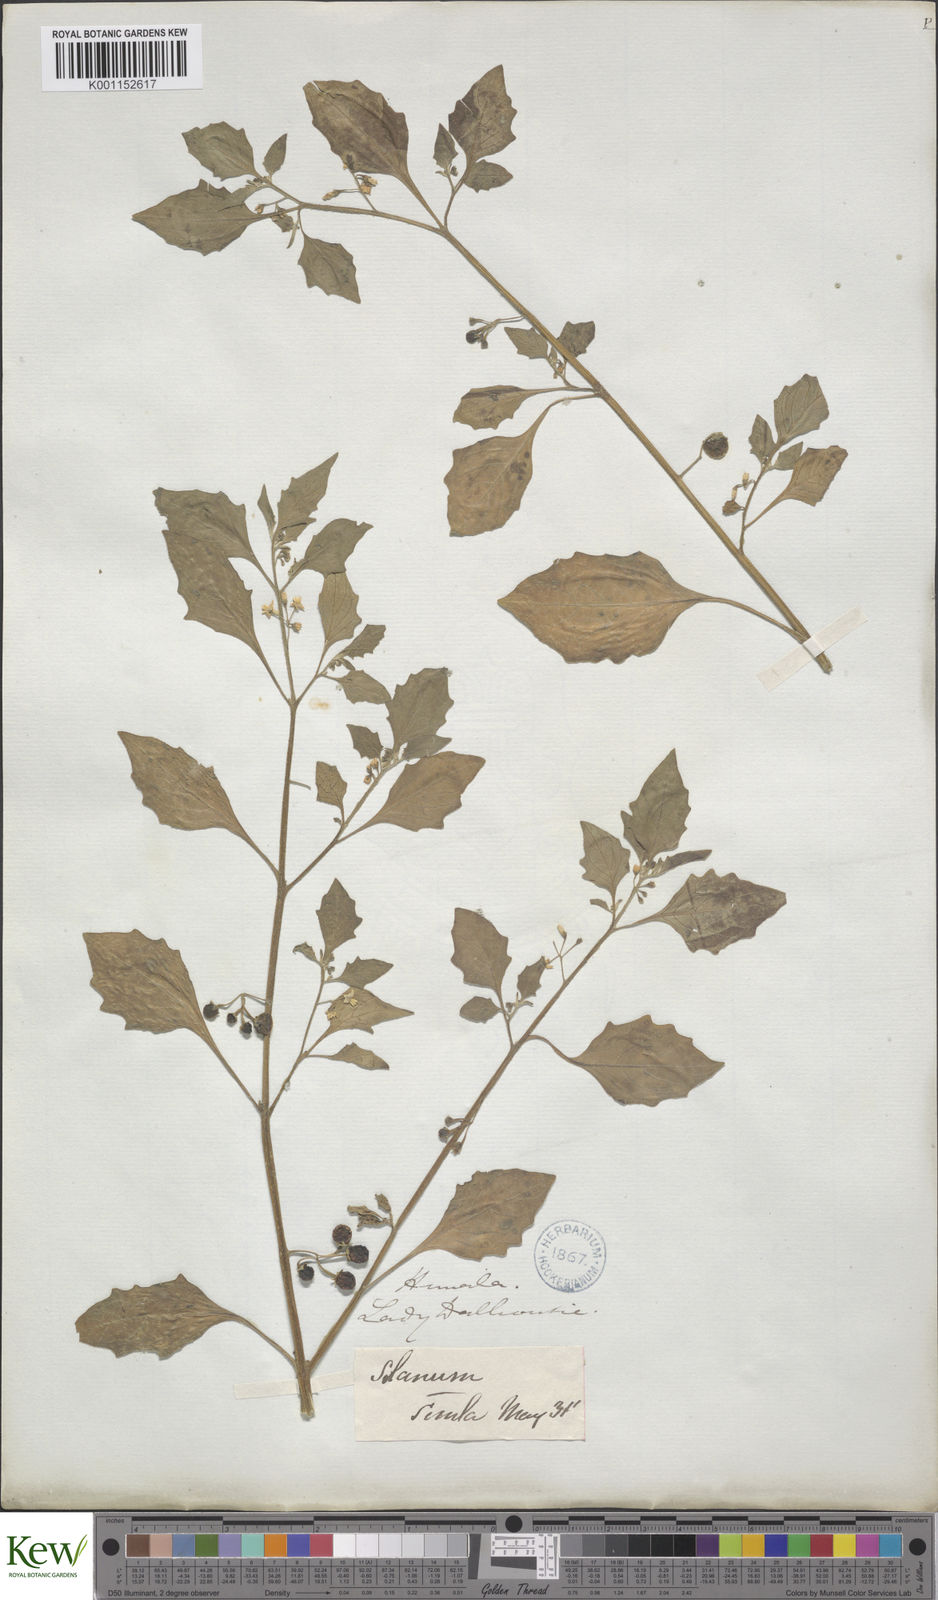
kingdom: Plantae
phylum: Tracheophyta
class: Magnoliopsida
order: Solanales
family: Solanaceae
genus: Solanum
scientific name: Solanum nigrum
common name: Black nightshade
